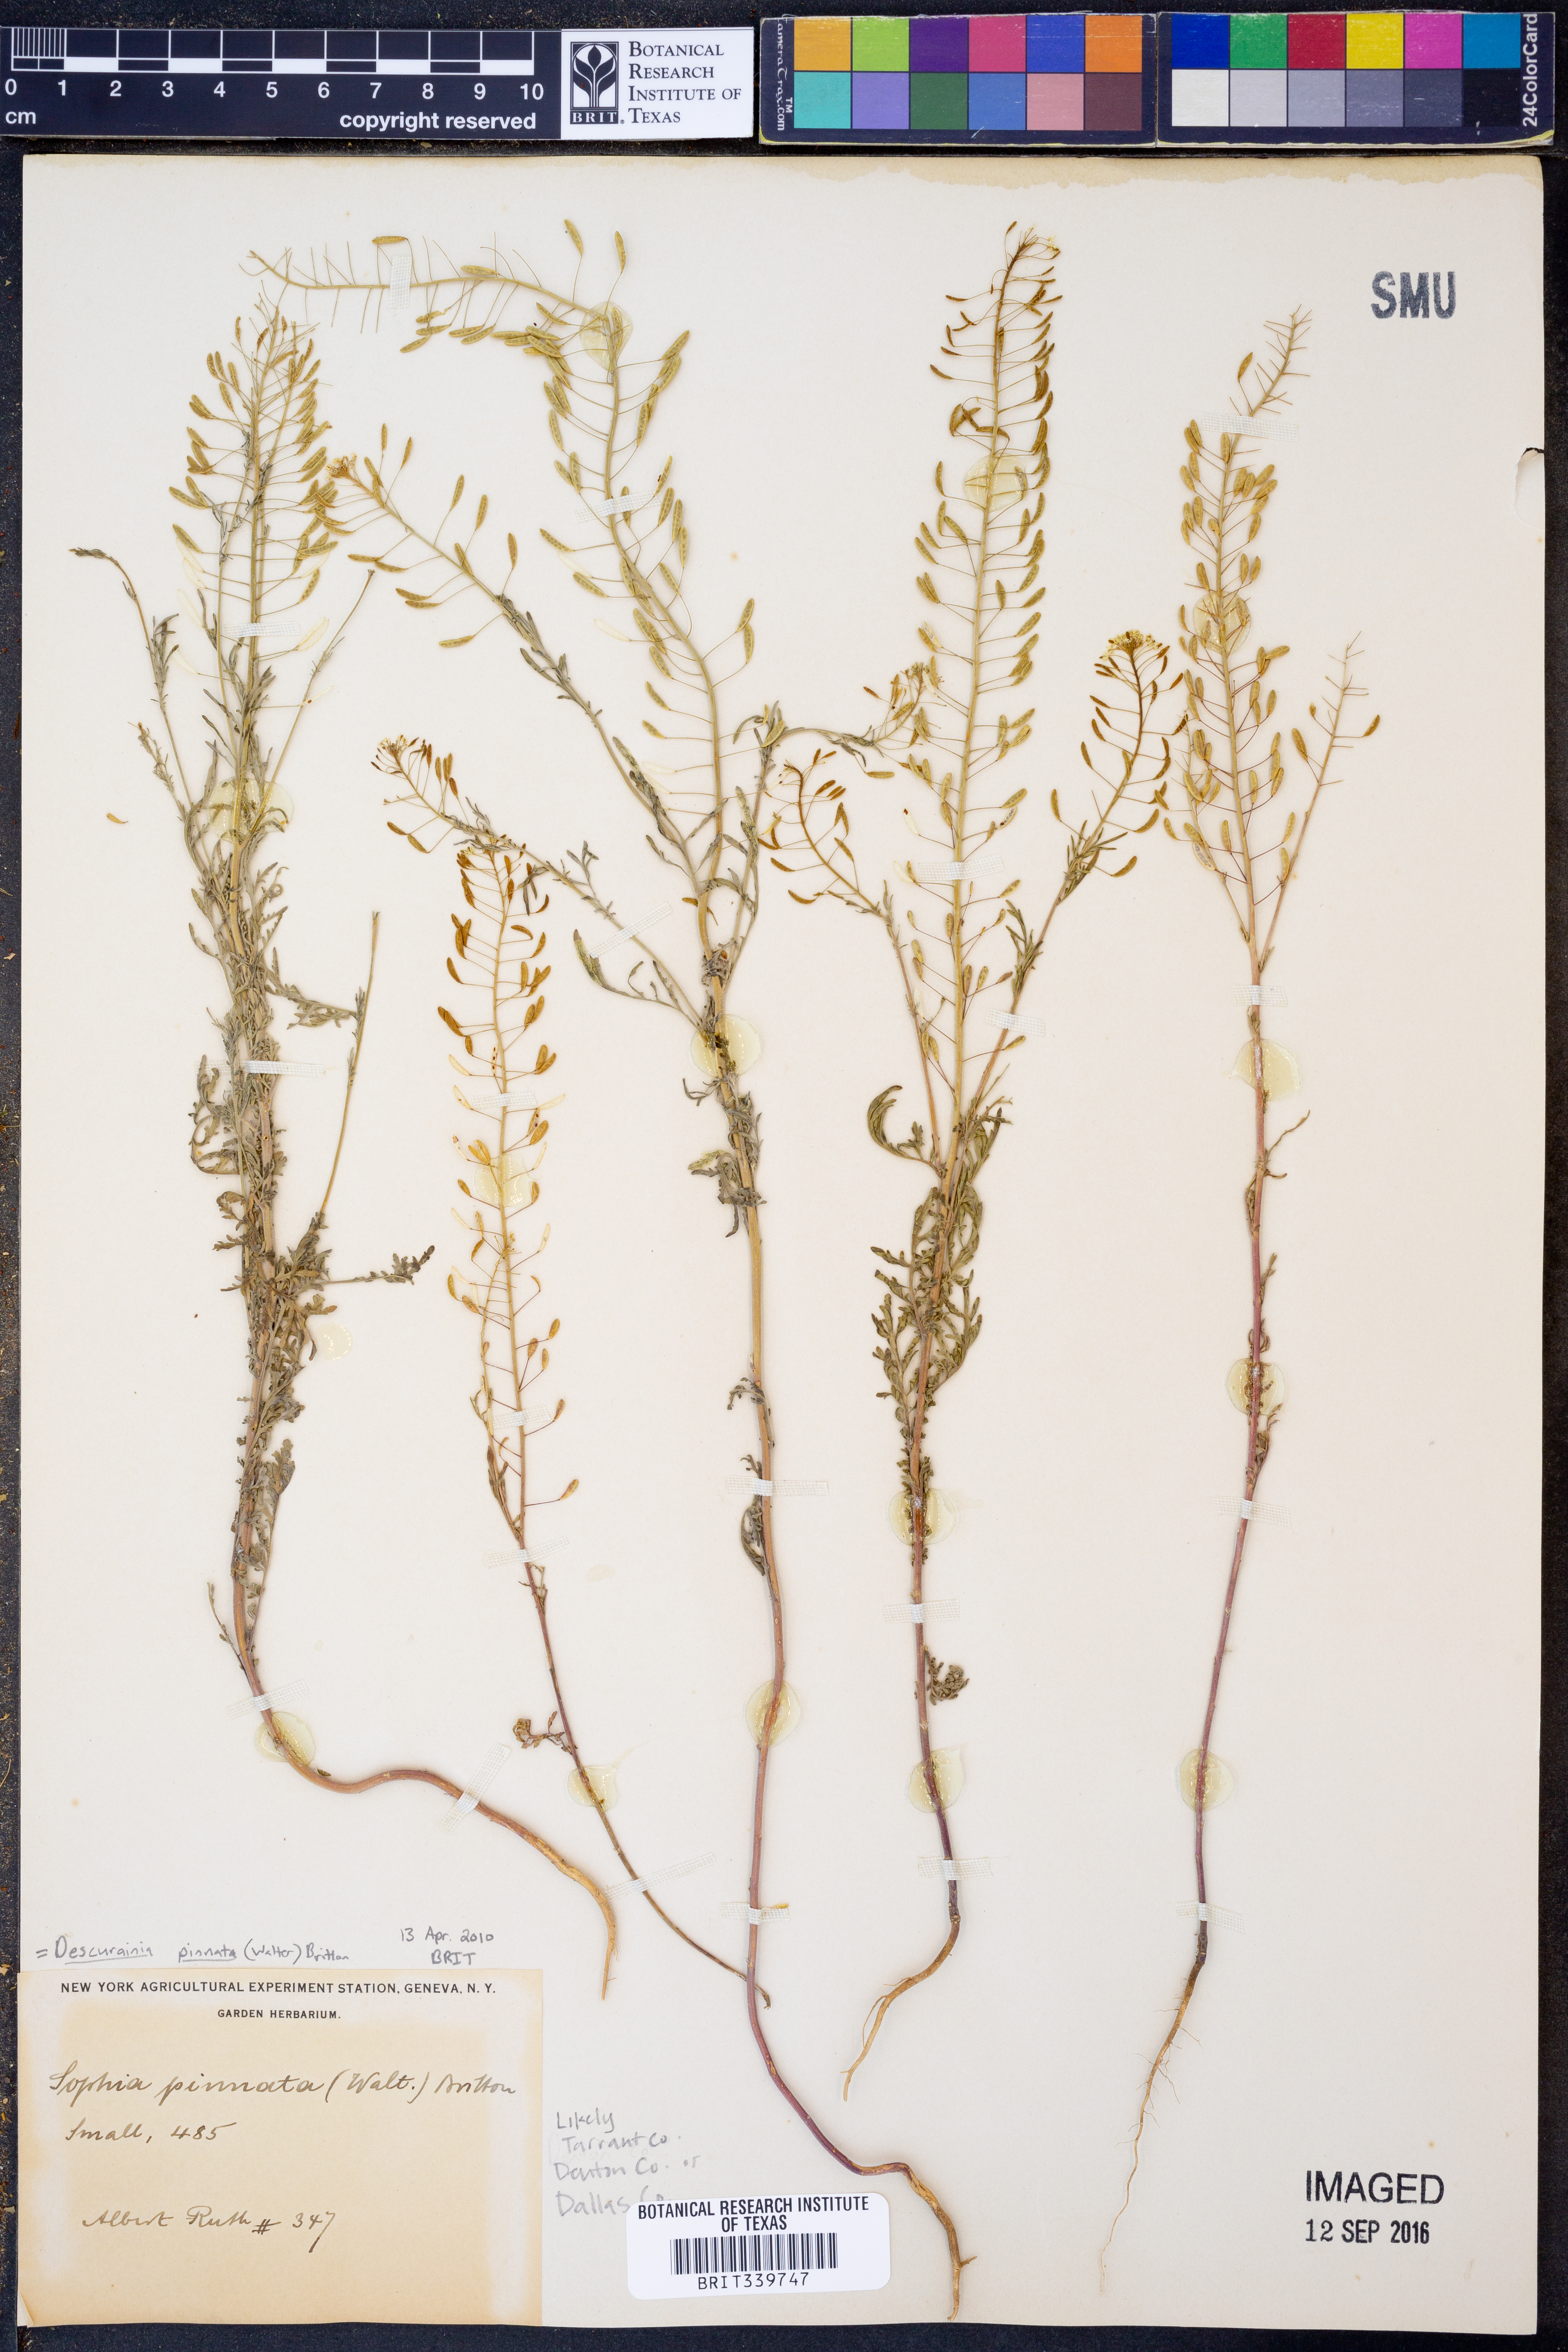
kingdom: Plantae
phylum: Tracheophyta
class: Magnoliopsida
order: Brassicales
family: Brassicaceae
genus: Descurainia
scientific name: Descurainia pinnata
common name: Western tansy mustard
